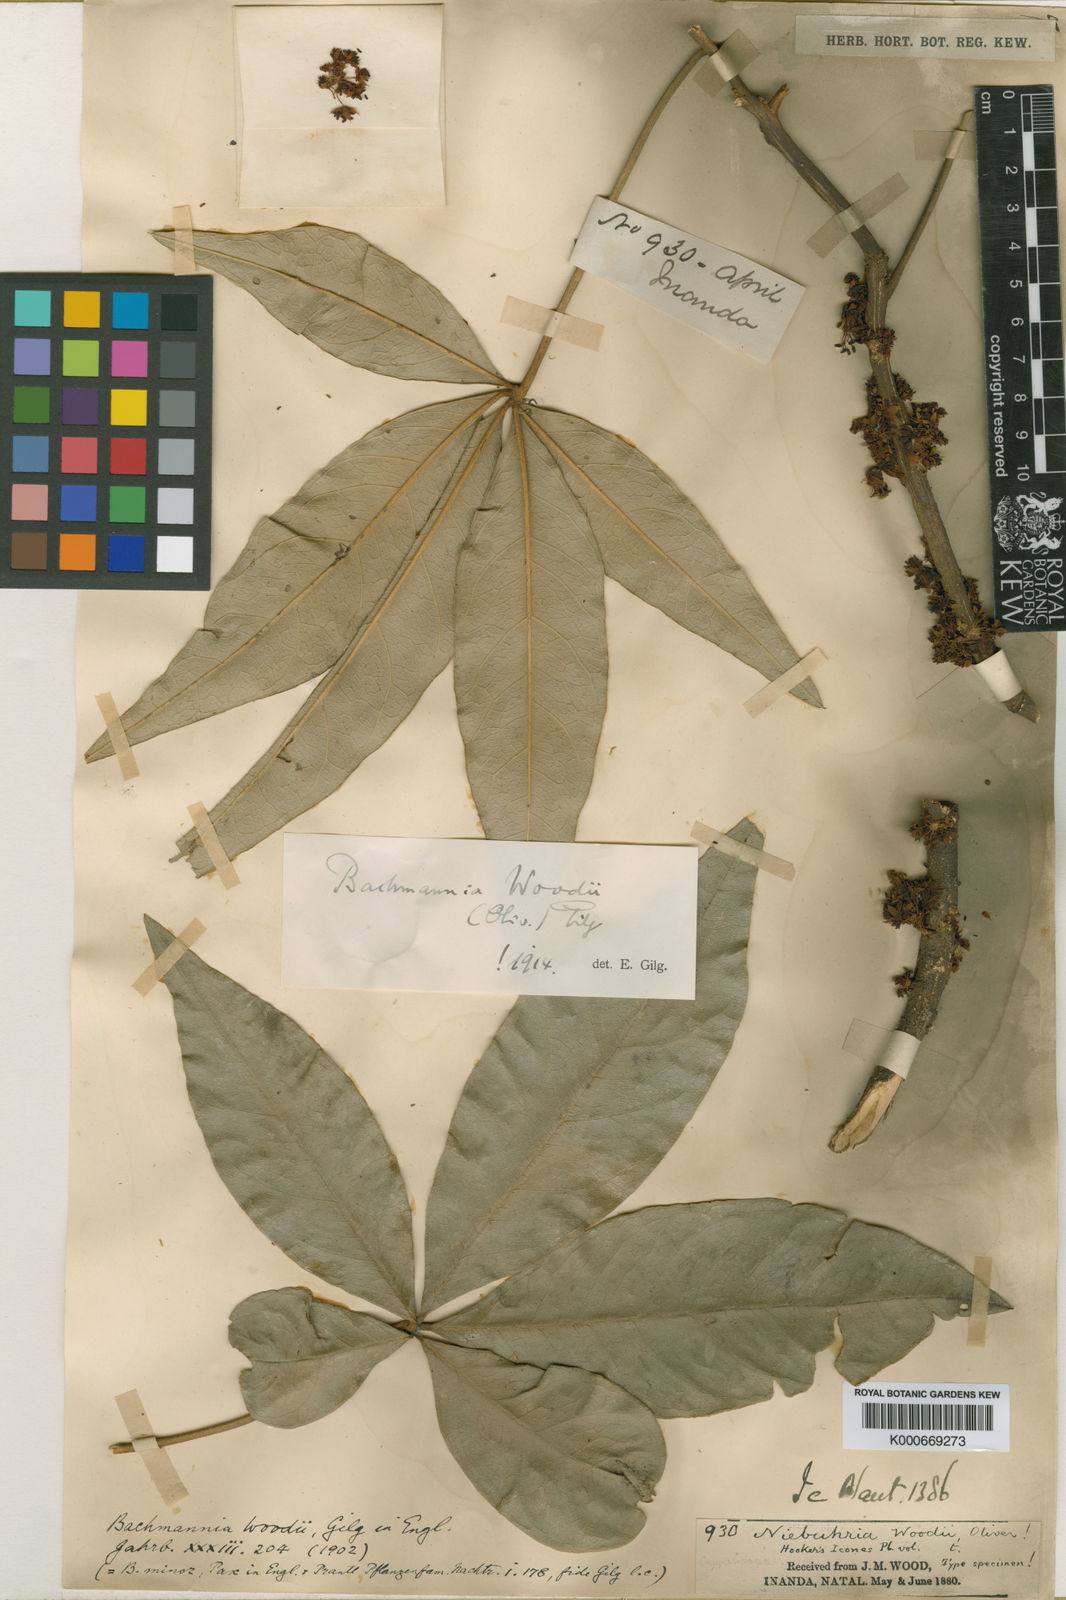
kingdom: Plantae
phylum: Tracheophyta
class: Magnoliopsida
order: Brassicales
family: Capparaceae
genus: Bachmannia
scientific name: Bachmannia woodii
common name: Four-finger bush
